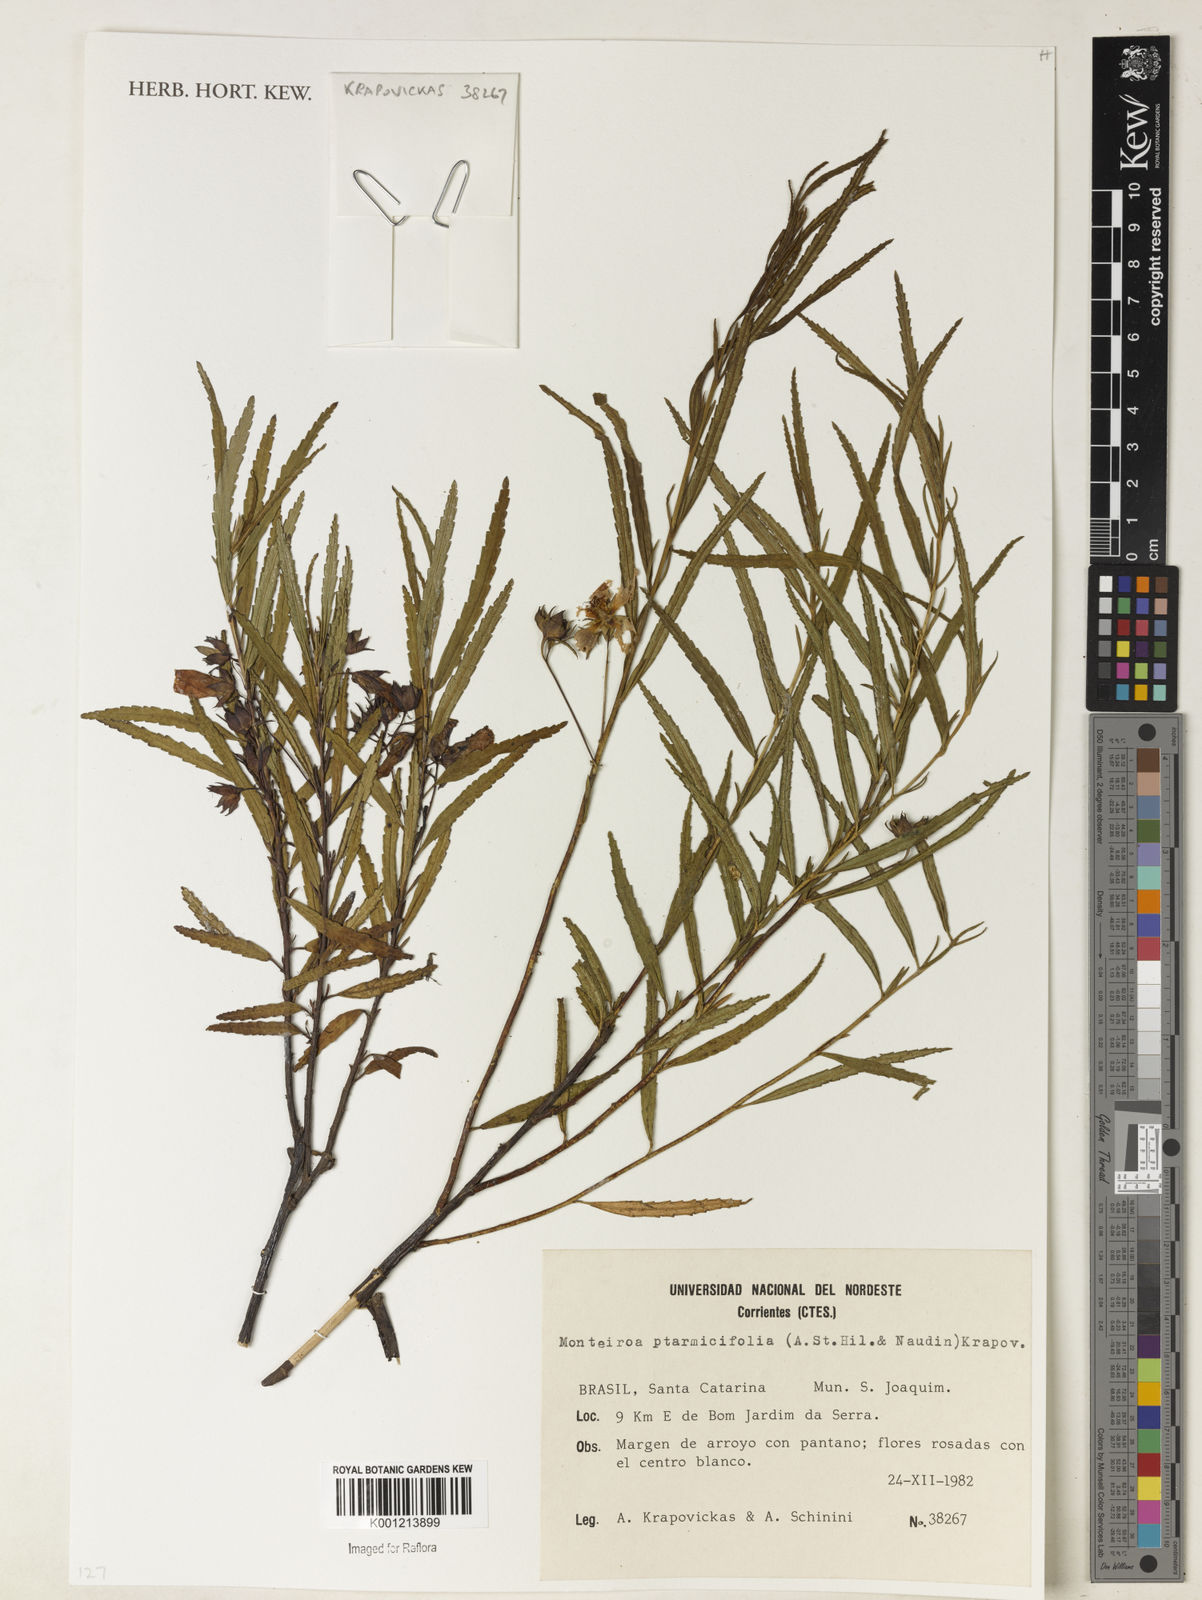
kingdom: Plantae
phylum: Tracheophyta
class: Magnoliopsida
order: Malvales
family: Malvaceae
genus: Monteiroa
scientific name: Monteiroa ptarmicifolia
